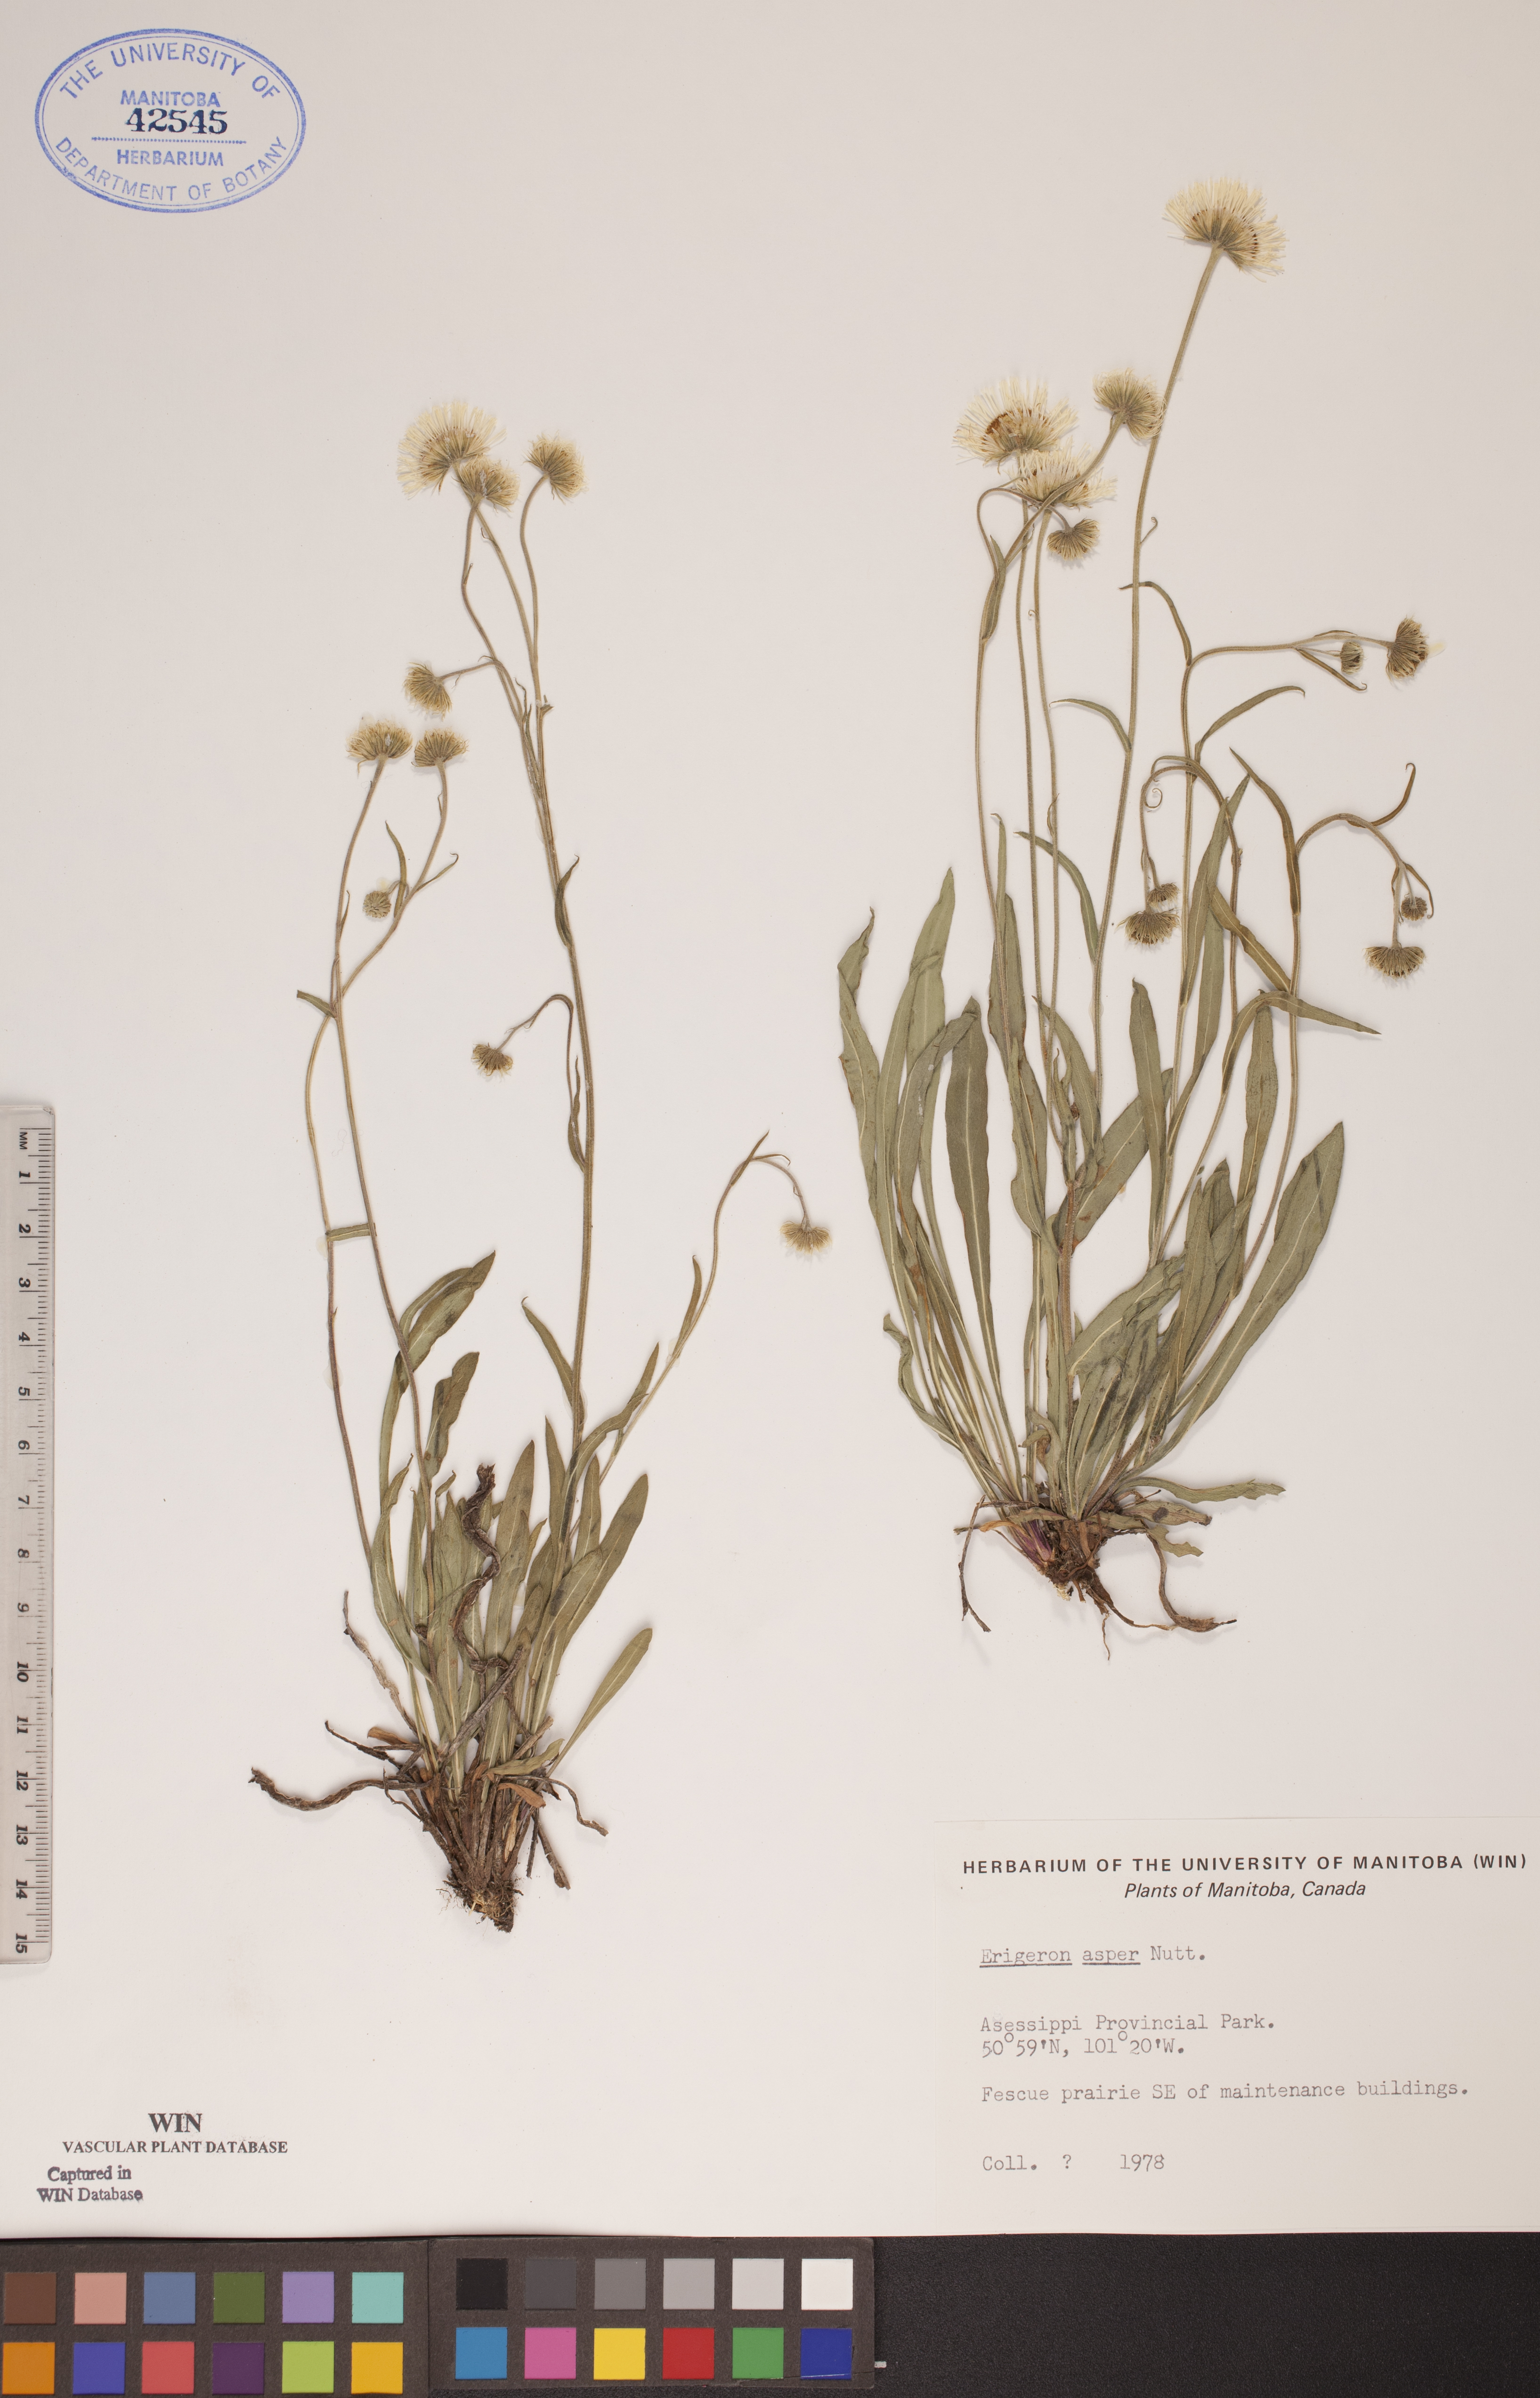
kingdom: Plantae
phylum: Tracheophyta
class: Magnoliopsida
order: Asterales
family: Asteraceae
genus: Erigeron
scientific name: Erigeron glabellus
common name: Smooth fleabane
